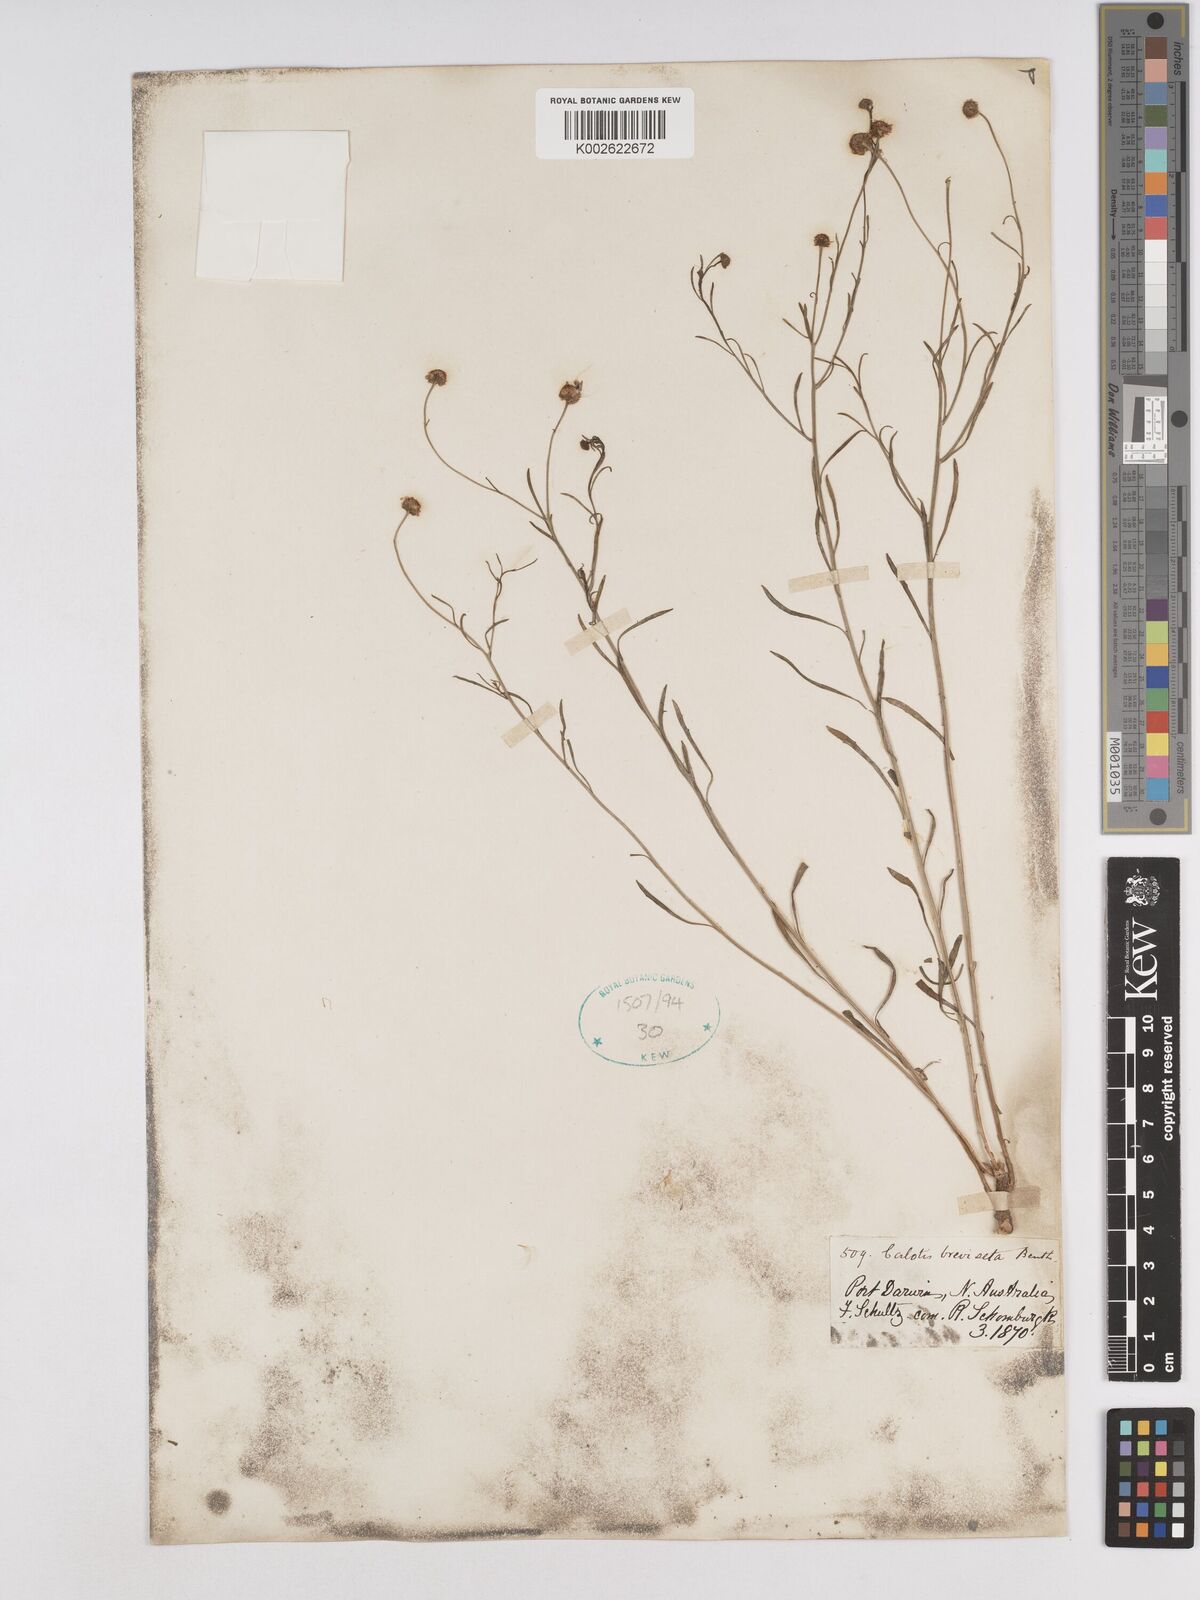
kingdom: Plantae
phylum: Tracheophyta
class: Magnoliopsida
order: Asterales
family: Asteraceae
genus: Calotis
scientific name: Calotis breviseta
